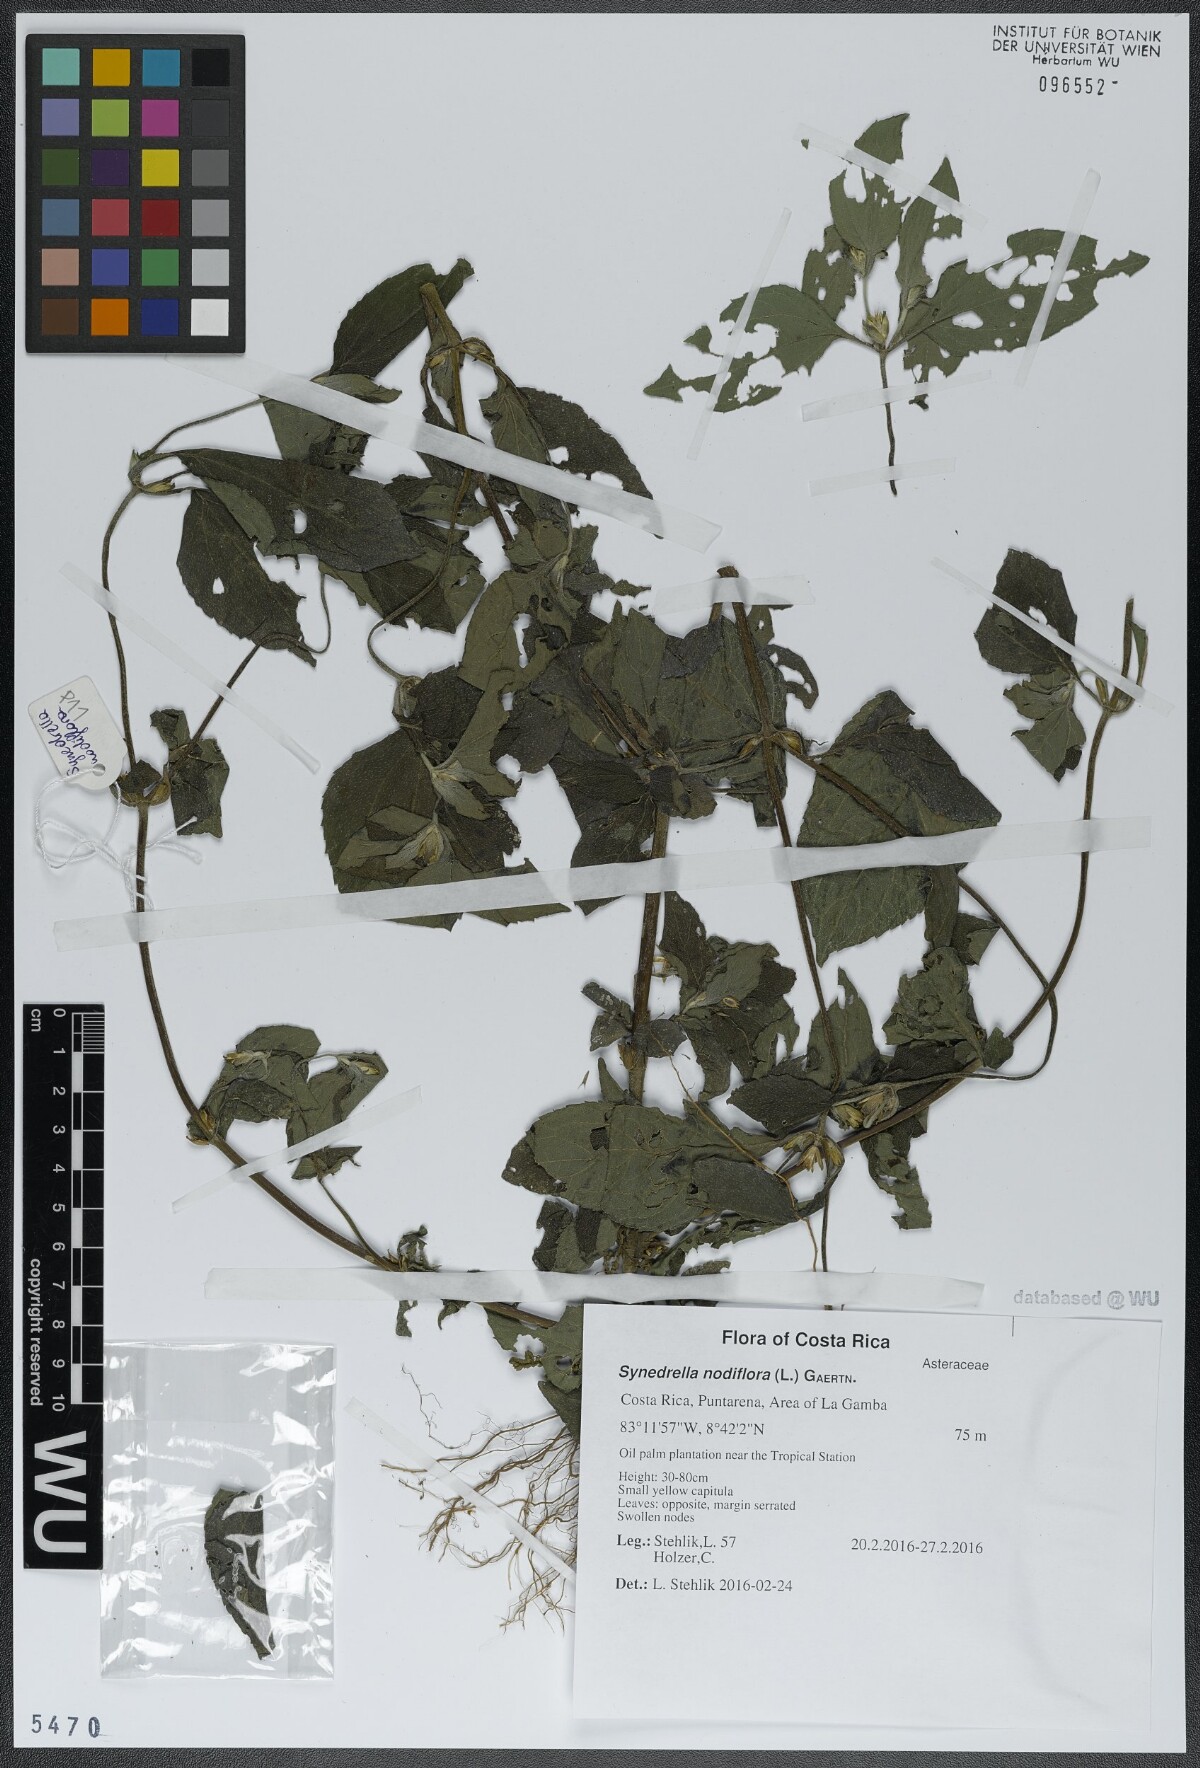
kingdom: Plantae
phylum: Tracheophyta
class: Magnoliopsida
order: Asterales
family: Asteraceae
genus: Synedrella
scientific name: Synedrella nodiflora
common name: Nodeweed
